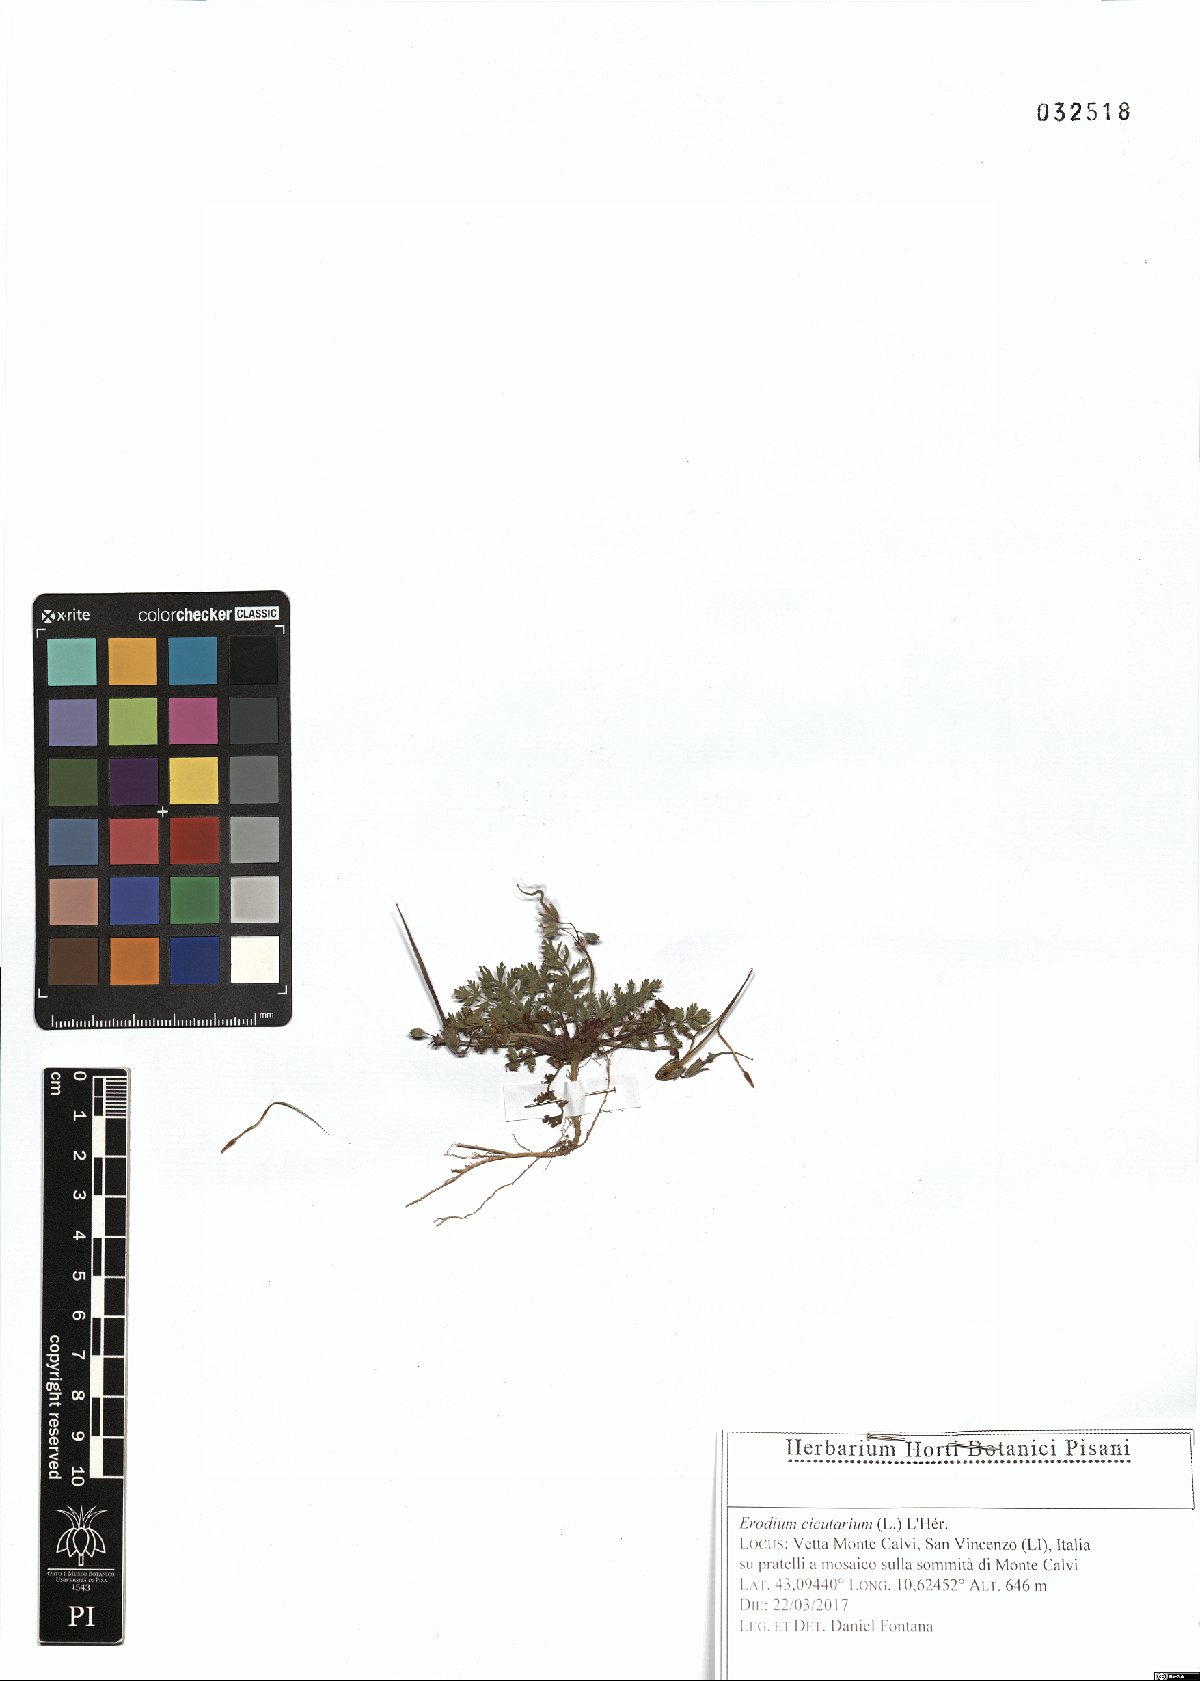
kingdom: Plantae
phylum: Tracheophyta
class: Magnoliopsida
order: Geraniales
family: Geraniaceae
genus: Erodium
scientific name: Erodium cicutarium
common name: Common stork's-bill
